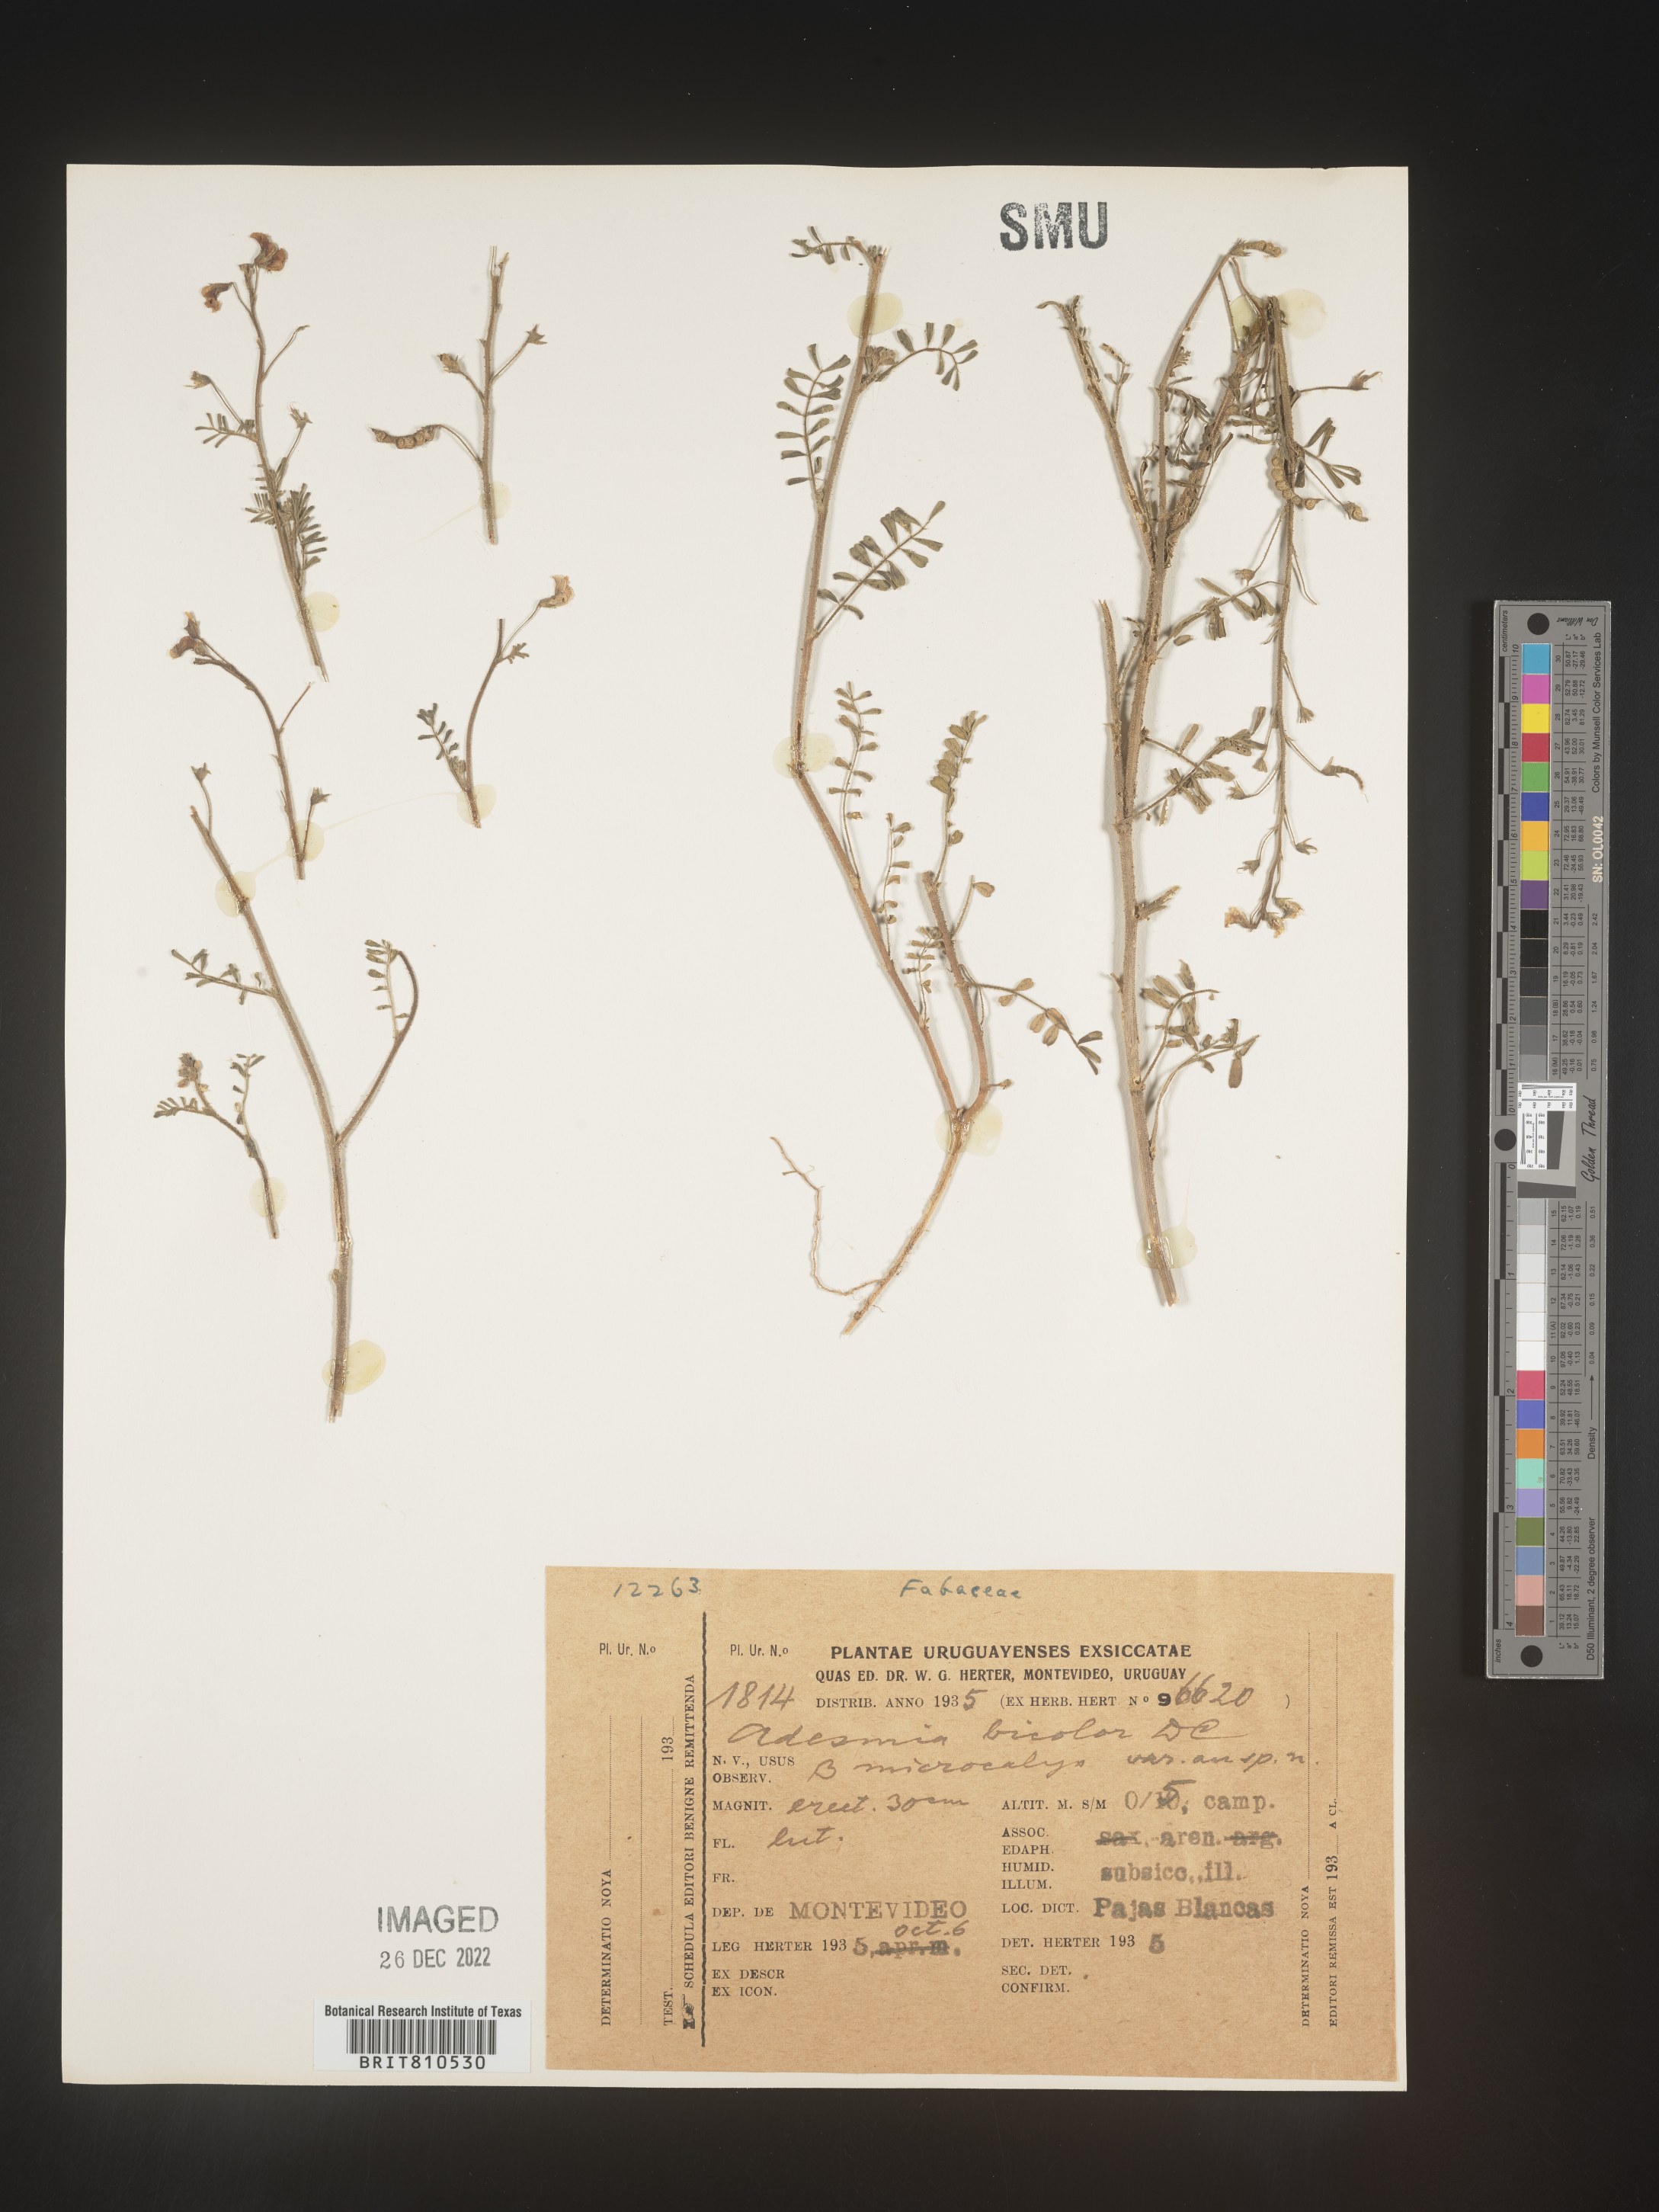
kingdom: Plantae
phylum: Tracheophyta
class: Magnoliopsida
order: Fabales
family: Fabaceae
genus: Adesmia
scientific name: Adesmia
